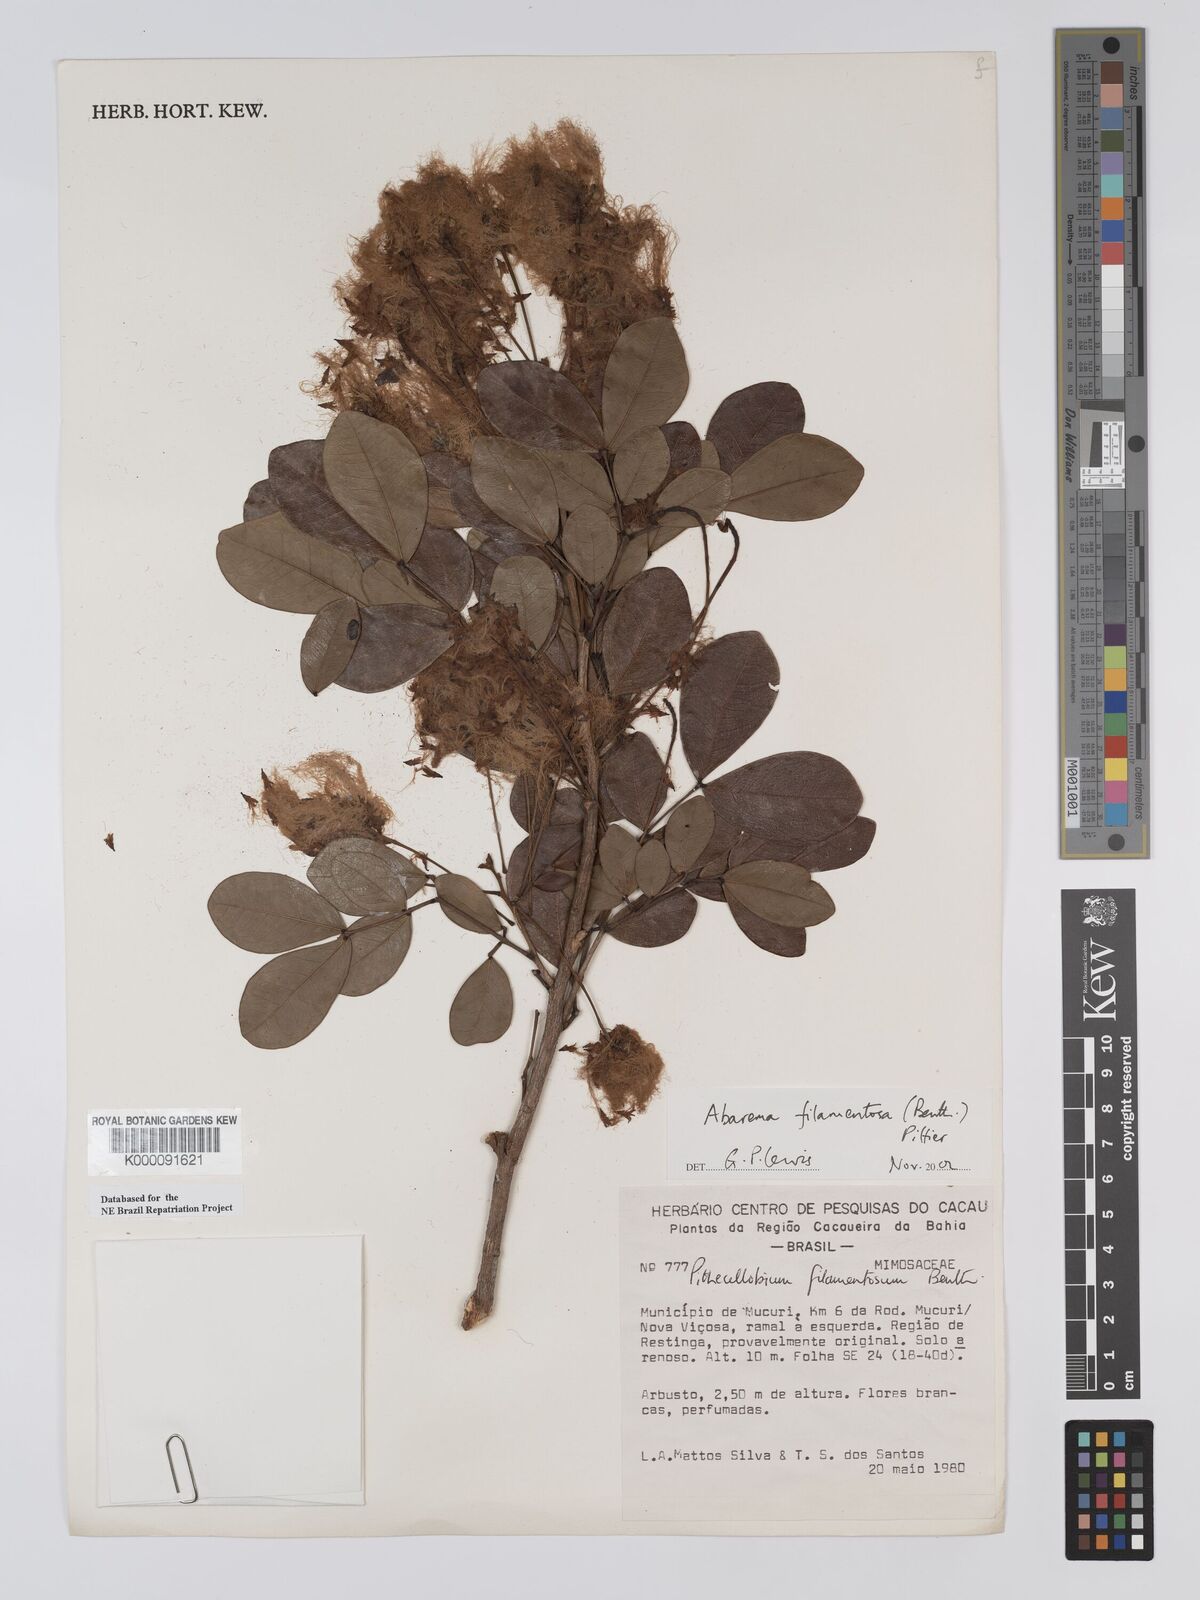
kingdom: Plantae
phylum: Tracheophyta
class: Magnoliopsida
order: Fabales
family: Fabaceae
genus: Jupunba
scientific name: Jupunba filamentosa
